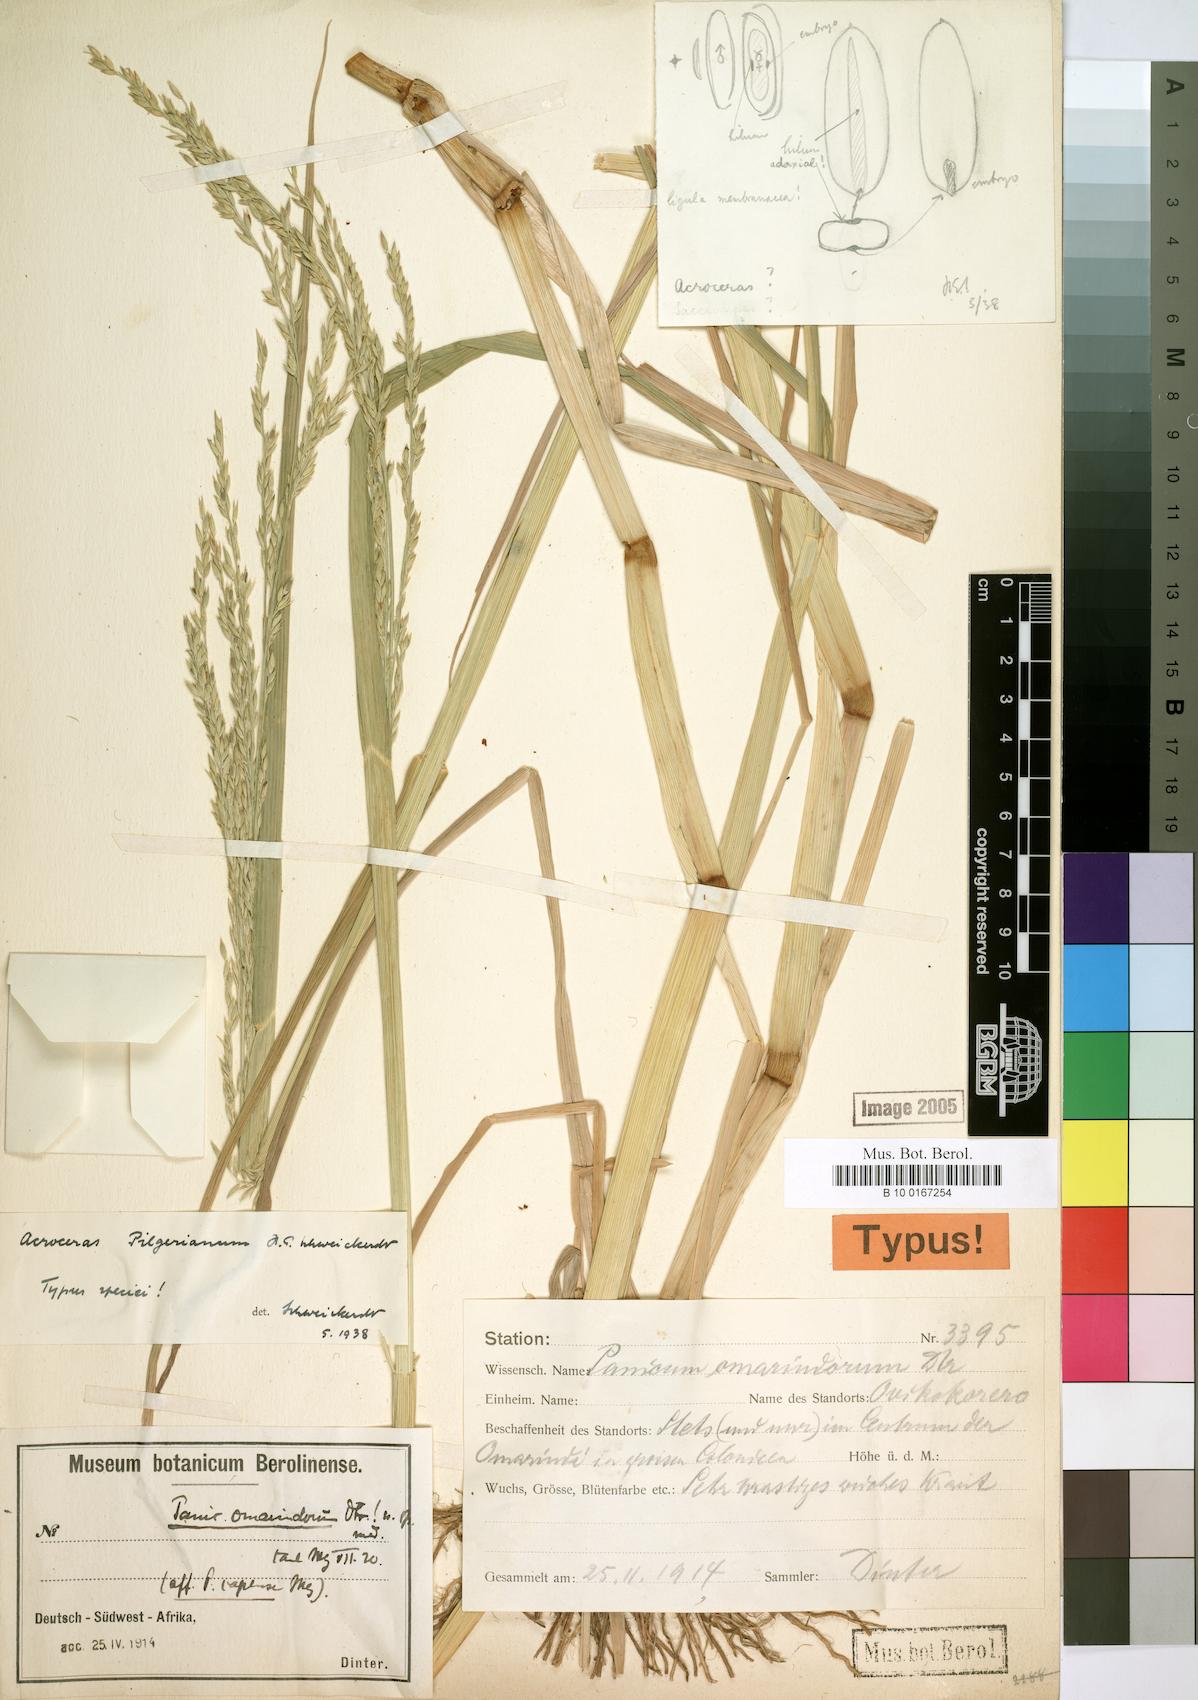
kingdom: Plantae
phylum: Tracheophyta
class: Liliopsida
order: Poales
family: Poaceae
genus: Panicum
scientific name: Panicum pilgerianum
